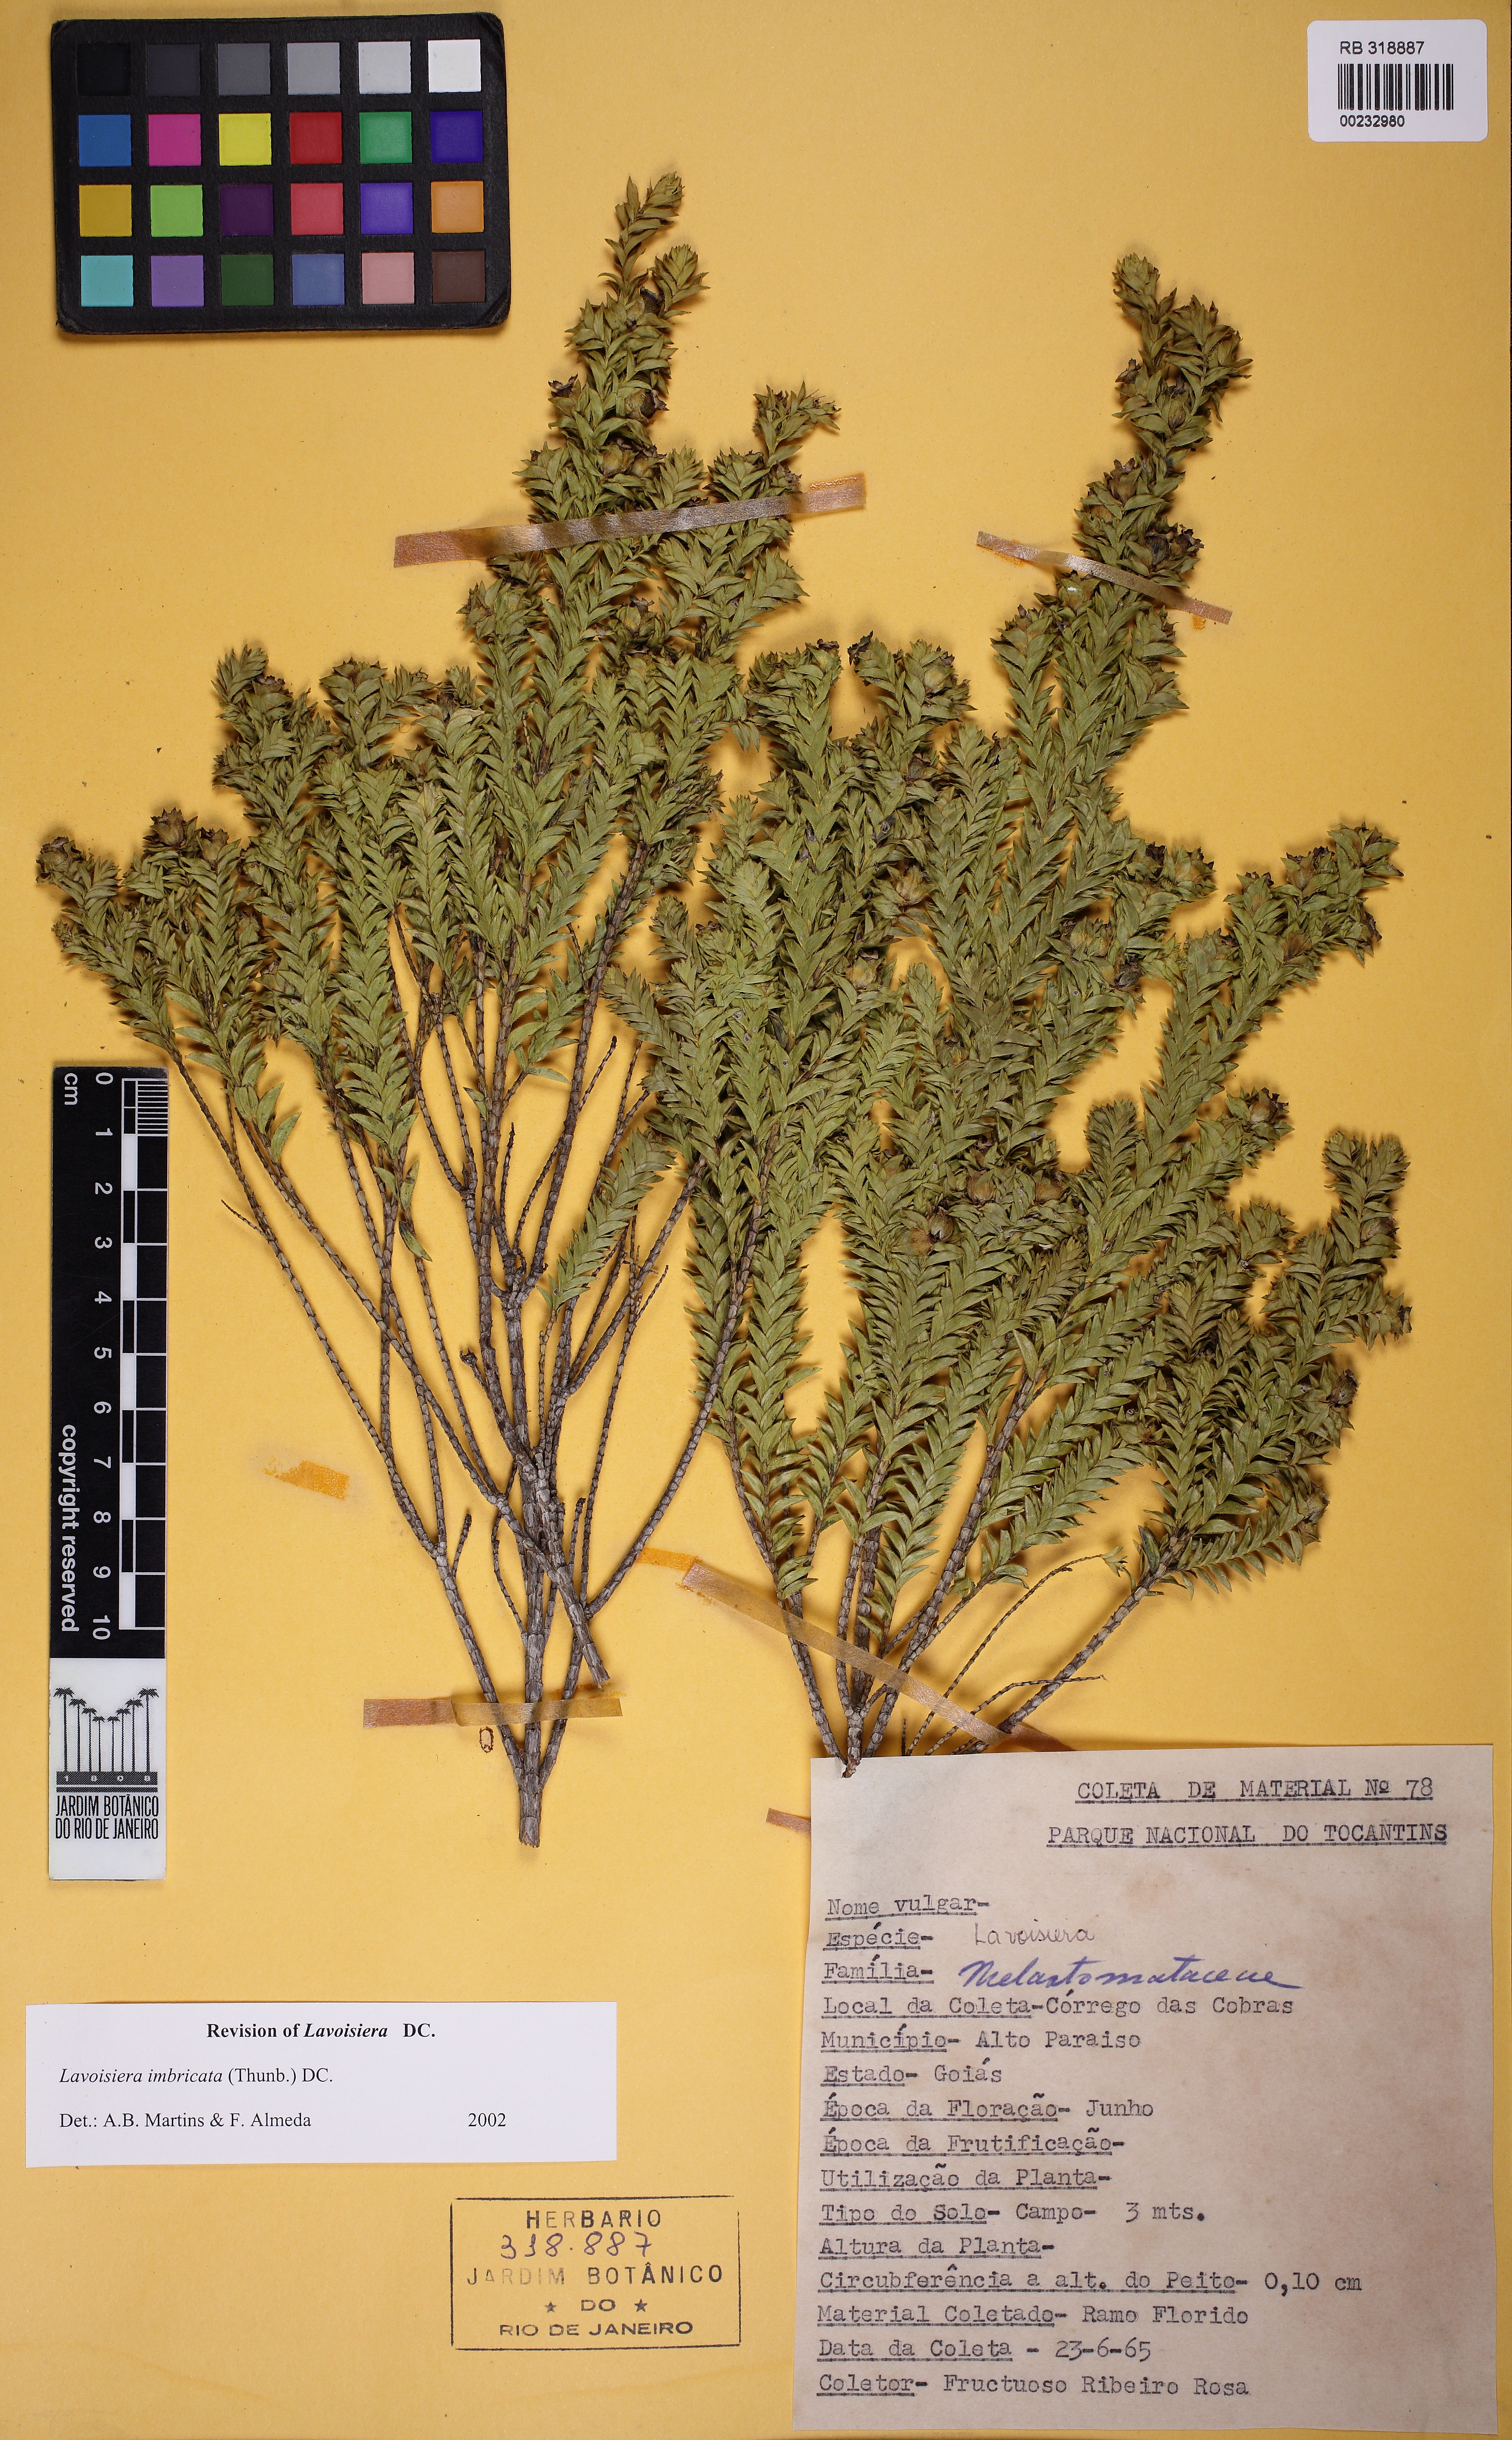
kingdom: Plantae
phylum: Tracheophyta
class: Magnoliopsida
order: Myrtales
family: Melastomataceae
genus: Microlicia
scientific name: Microlicia cataphracta
